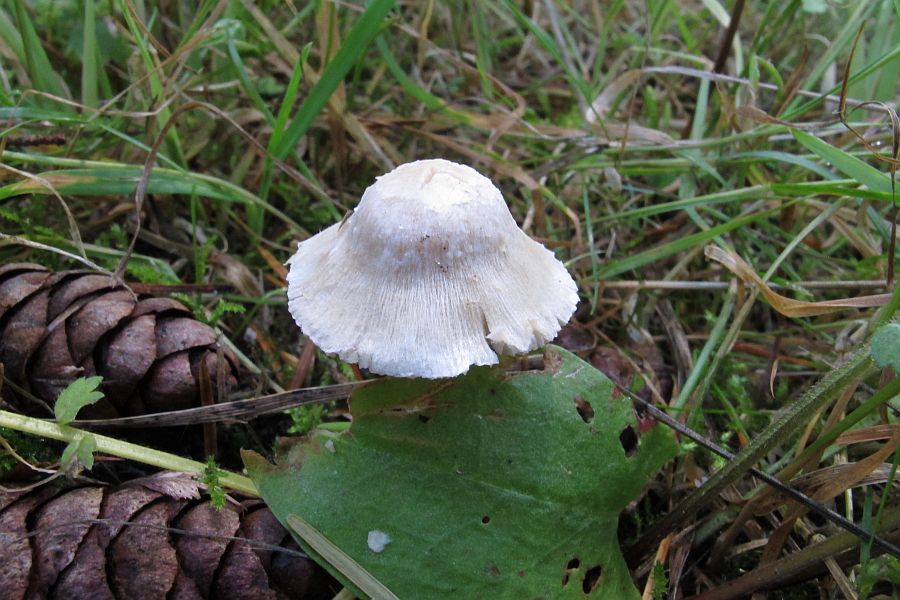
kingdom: Fungi
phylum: Basidiomycota
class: Agaricomycetes
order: Agaricales
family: Inocybaceae
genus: Inocybe
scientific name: Inocybe sindonia
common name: bleg trævlhat
